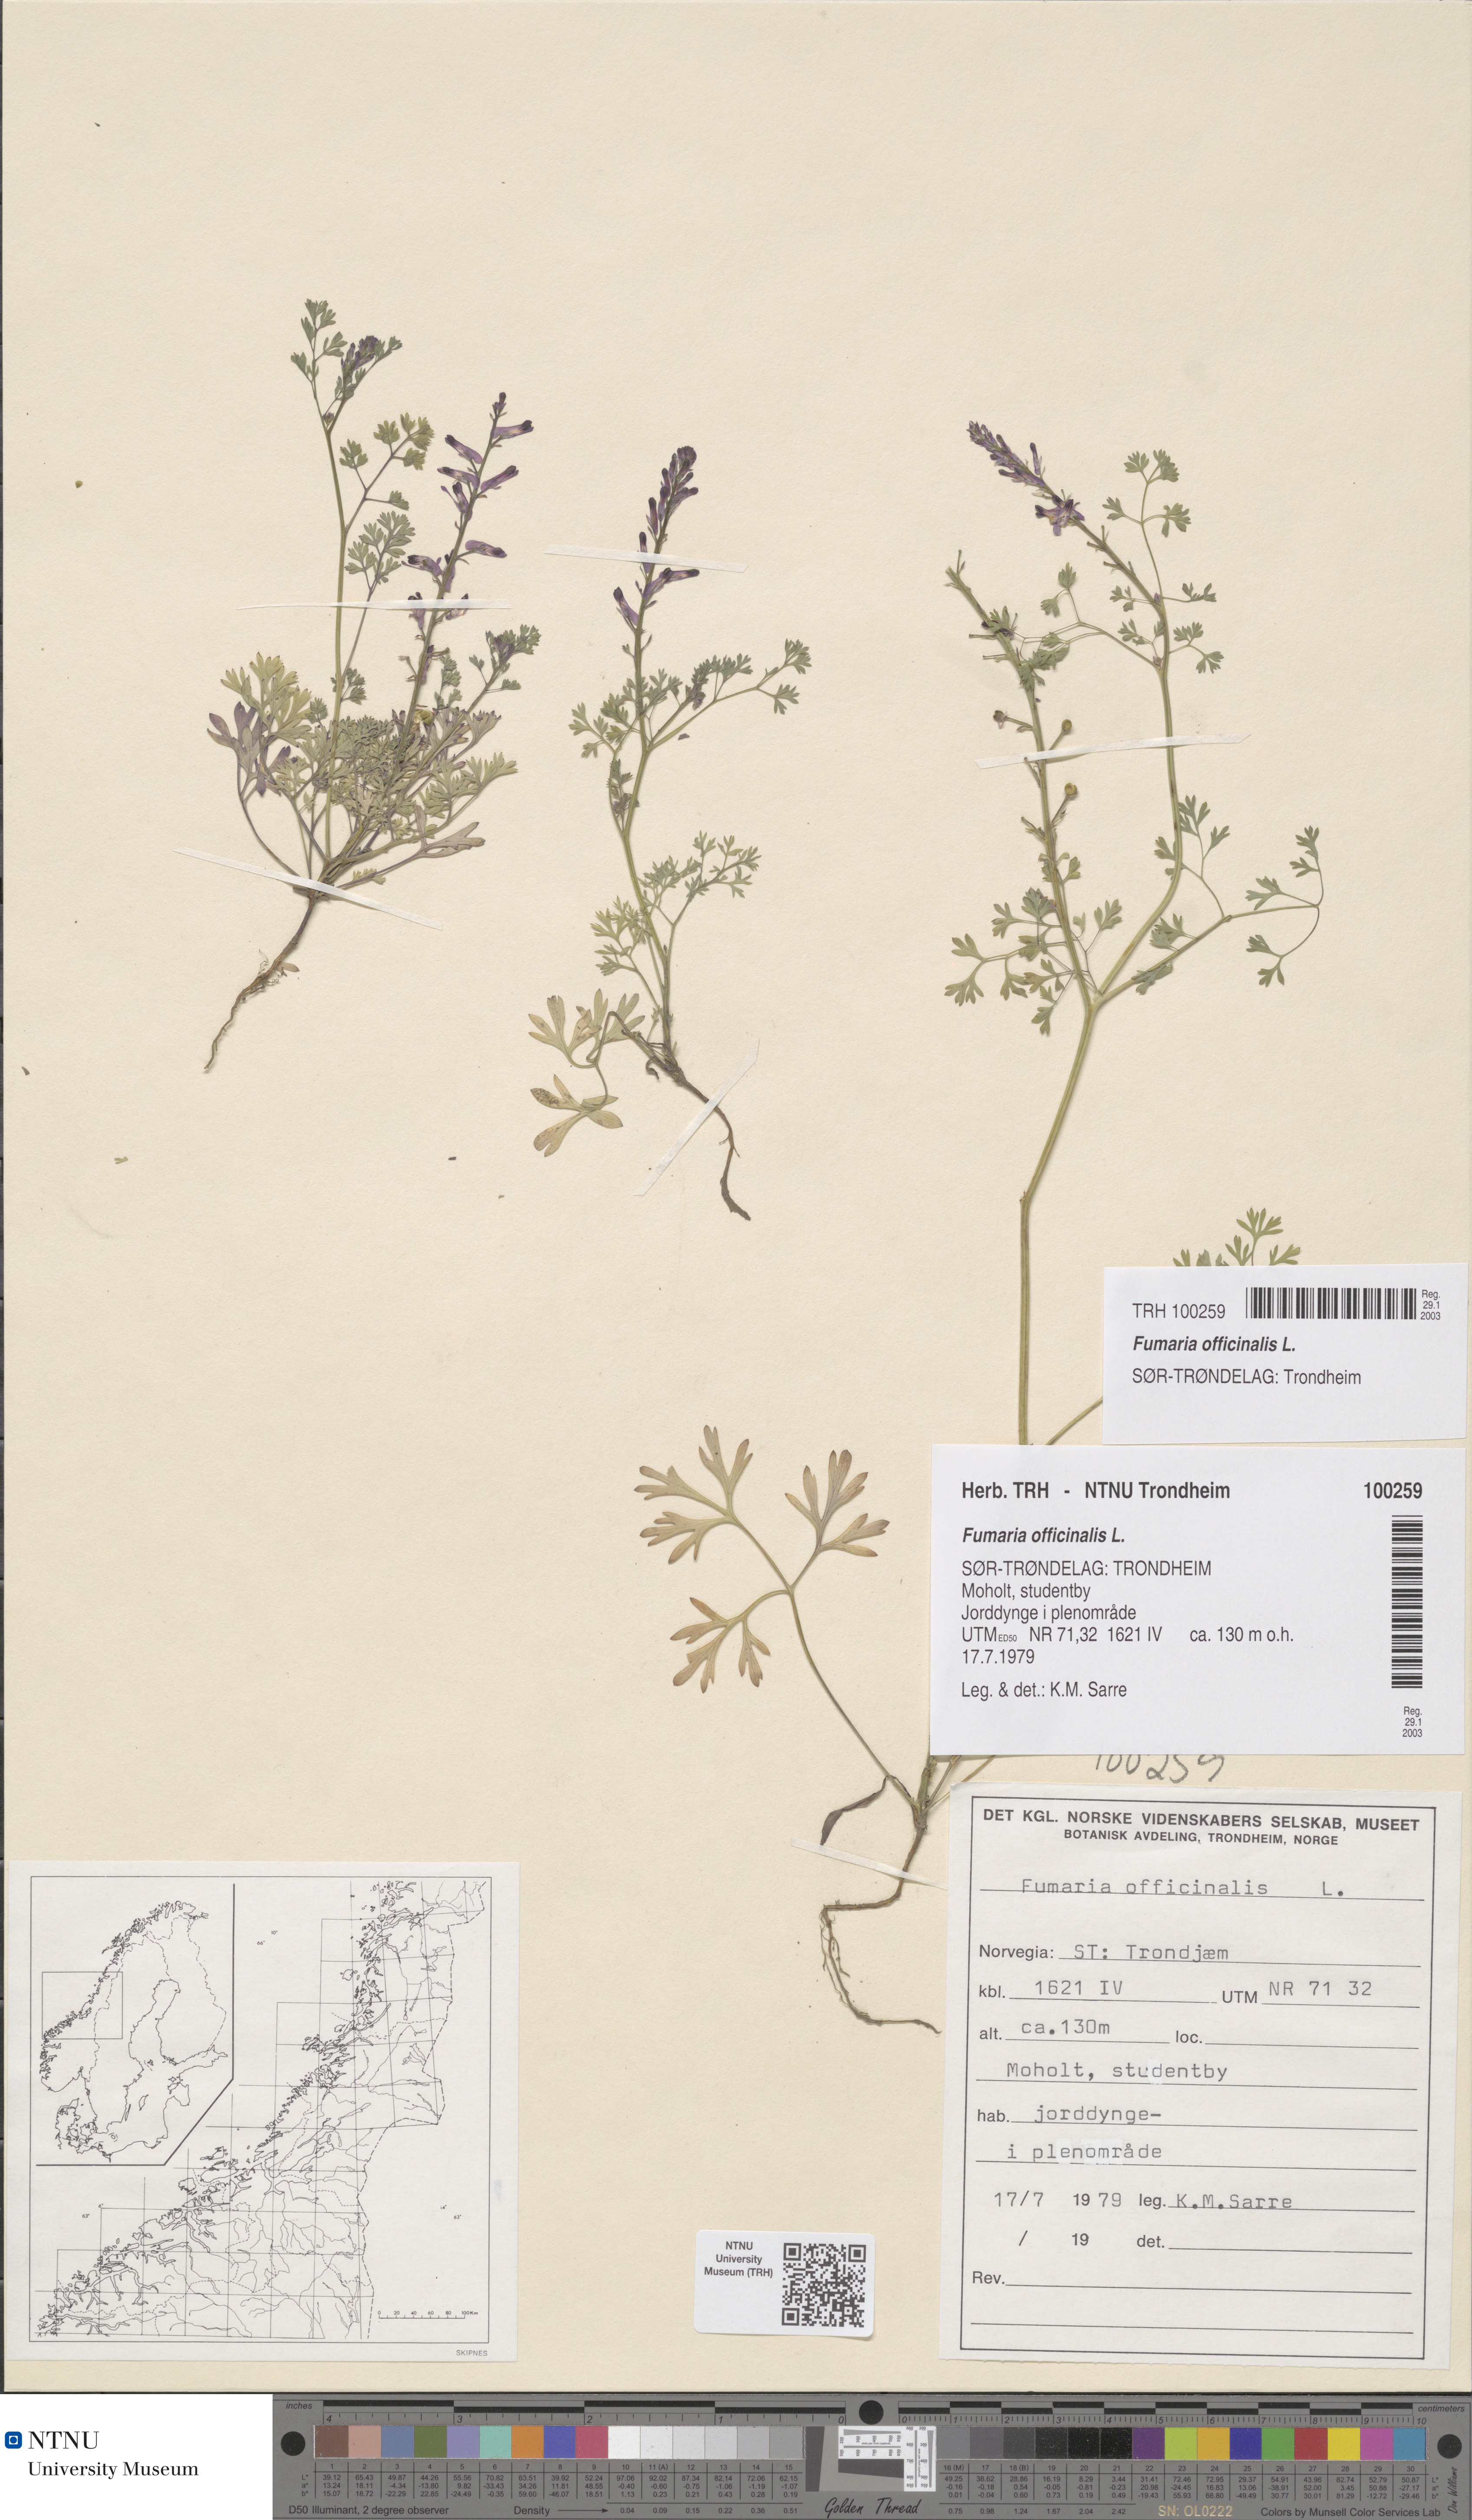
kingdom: Plantae
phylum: Tracheophyta
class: Magnoliopsida
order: Ranunculales
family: Papaveraceae
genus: Fumaria
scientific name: Fumaria officinalis
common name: Common fumitory
